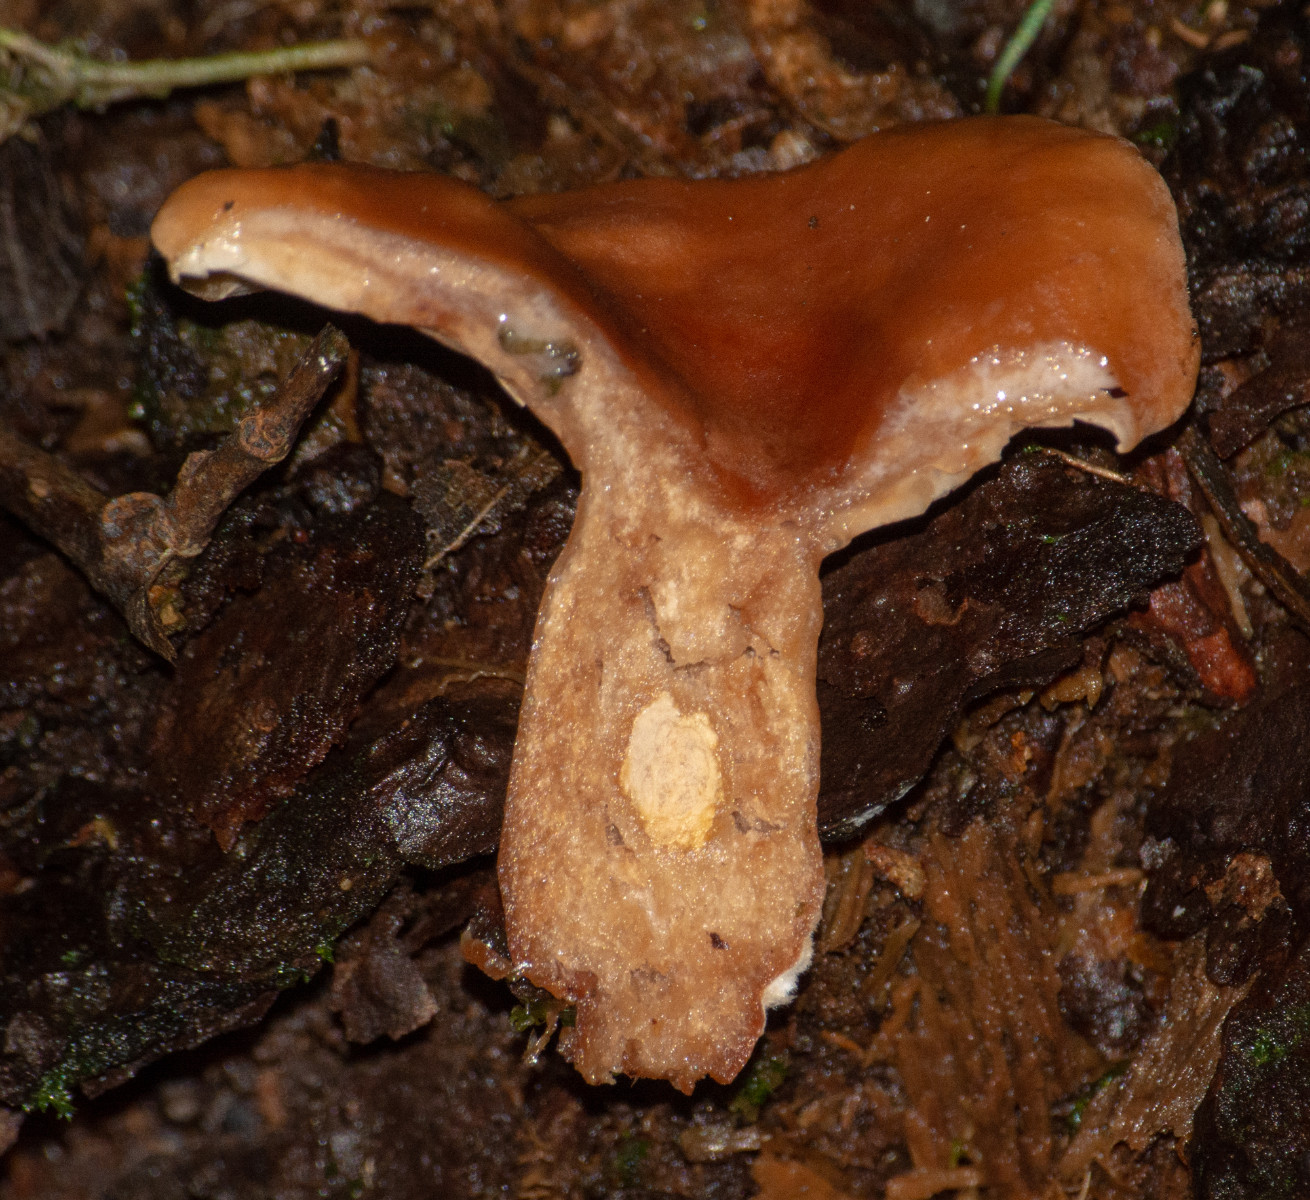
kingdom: Fungi
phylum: Basidiomycota
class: Agaricomycetes
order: Russulales
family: Russulaceae
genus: Lactarius
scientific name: Lactarius
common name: mælkehat
